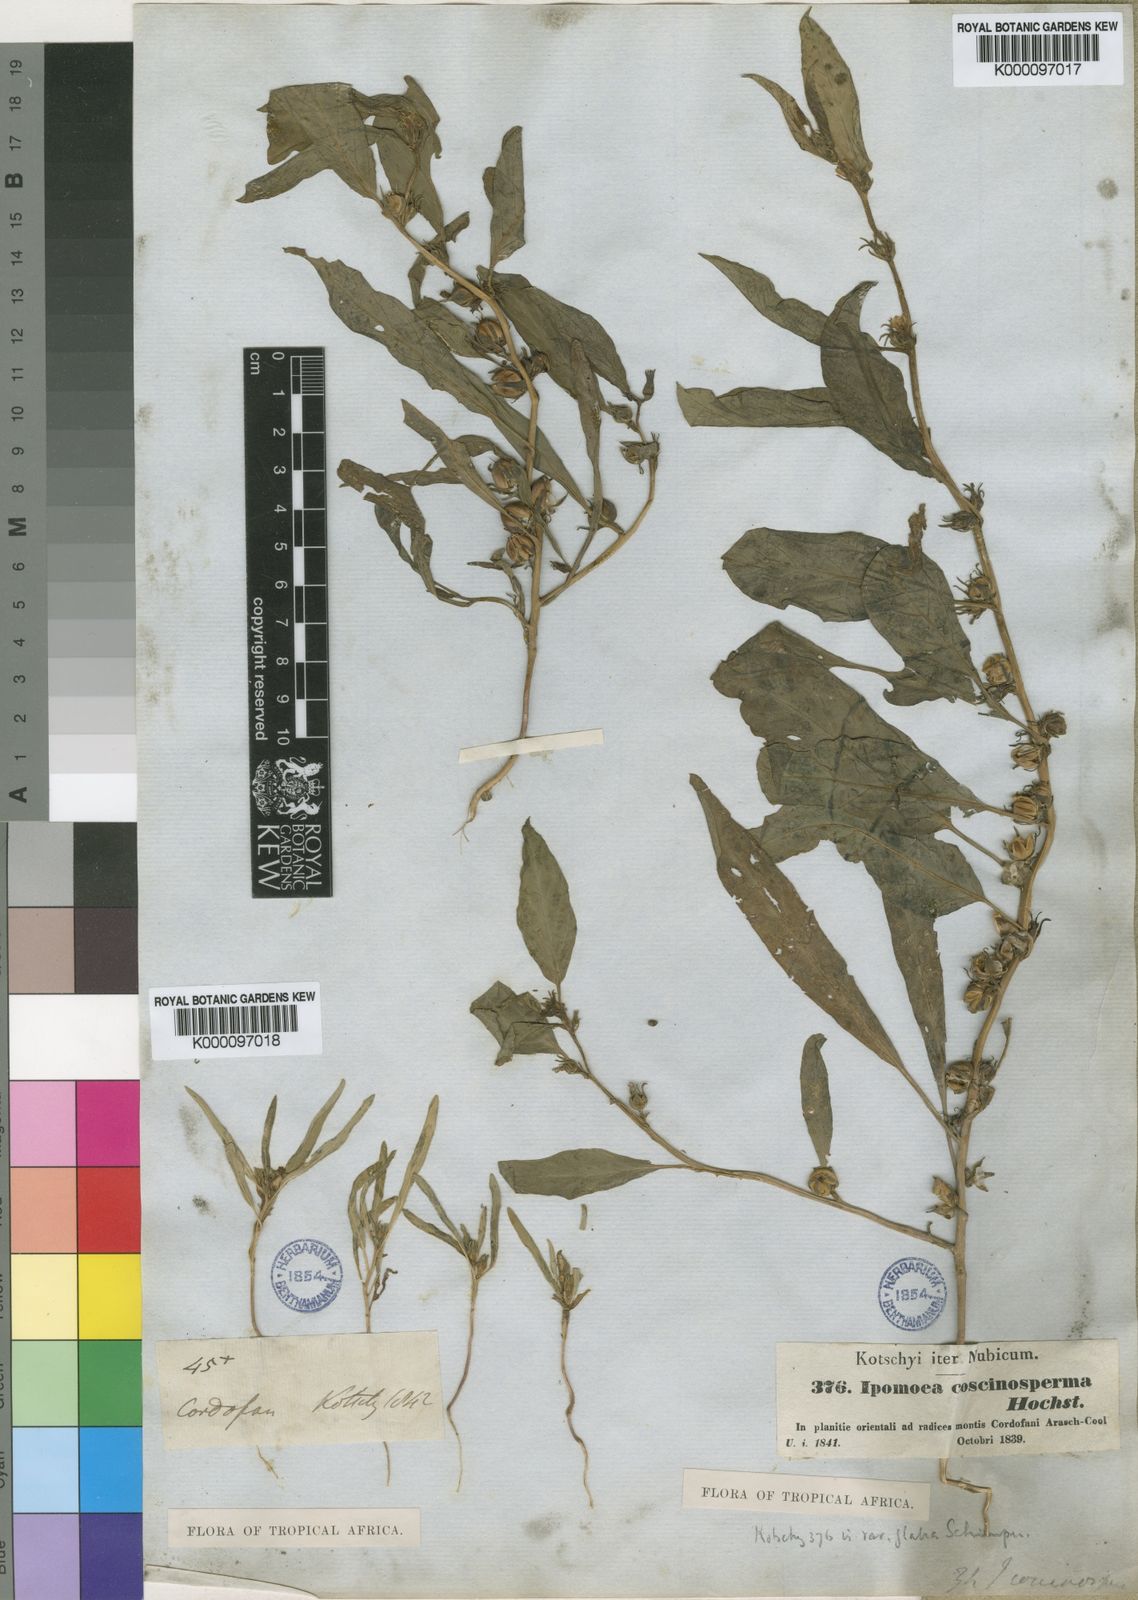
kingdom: Plantae
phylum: Tracheophyta
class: Magnoliopsida
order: Solanales
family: Convolvulaceae
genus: Ipomoea
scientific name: Ipomoea coscinosperma
